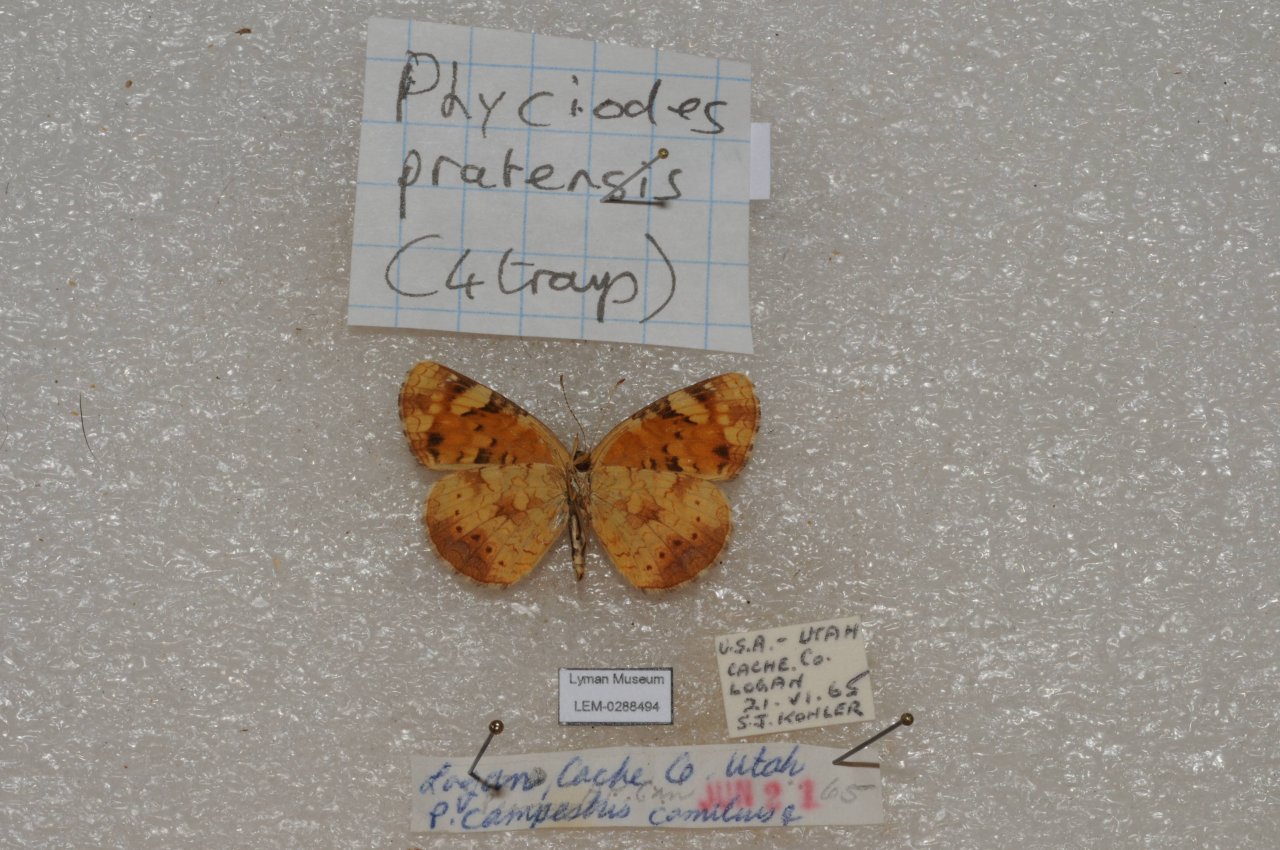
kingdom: Animalia
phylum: Arthropoda
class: Insecta
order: Lepidoptera
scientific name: Lepidoptera
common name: Butterflies
